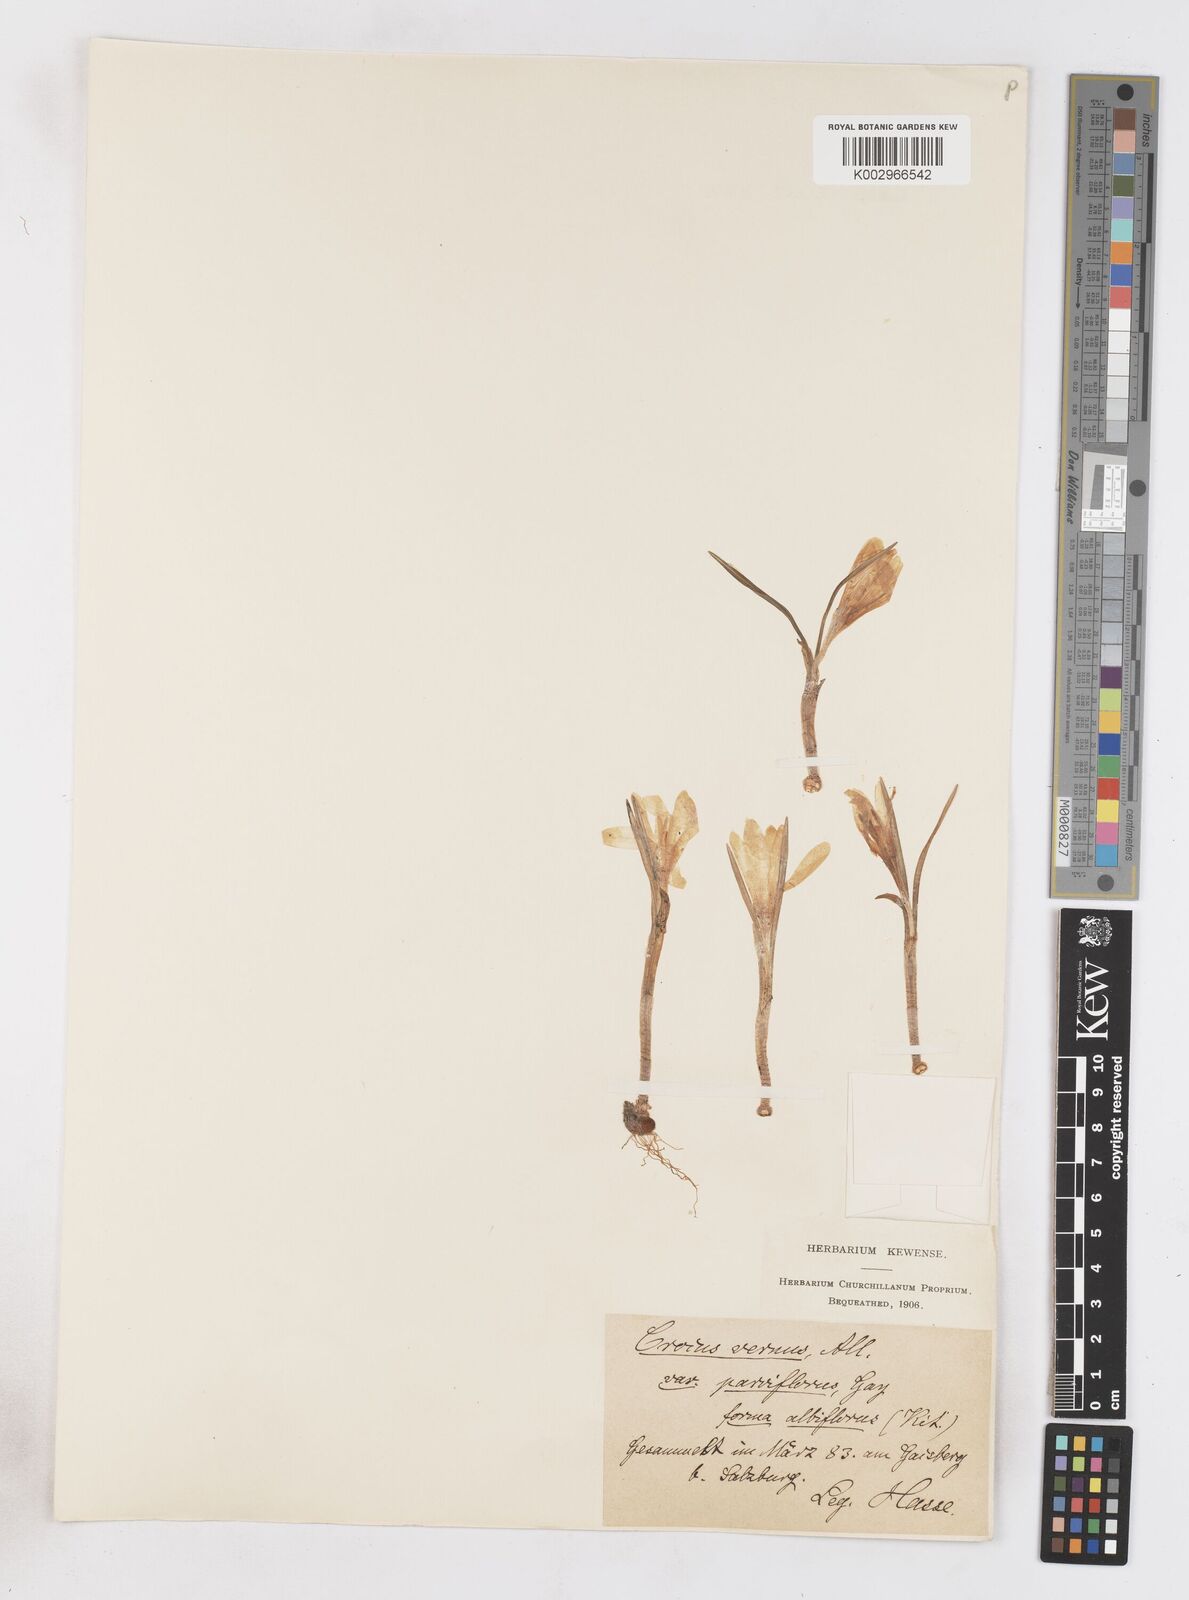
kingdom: Plantae
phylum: Tracheophyta
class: Liliopsida
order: Asparagales
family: Iridaceae
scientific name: Iridaceae
